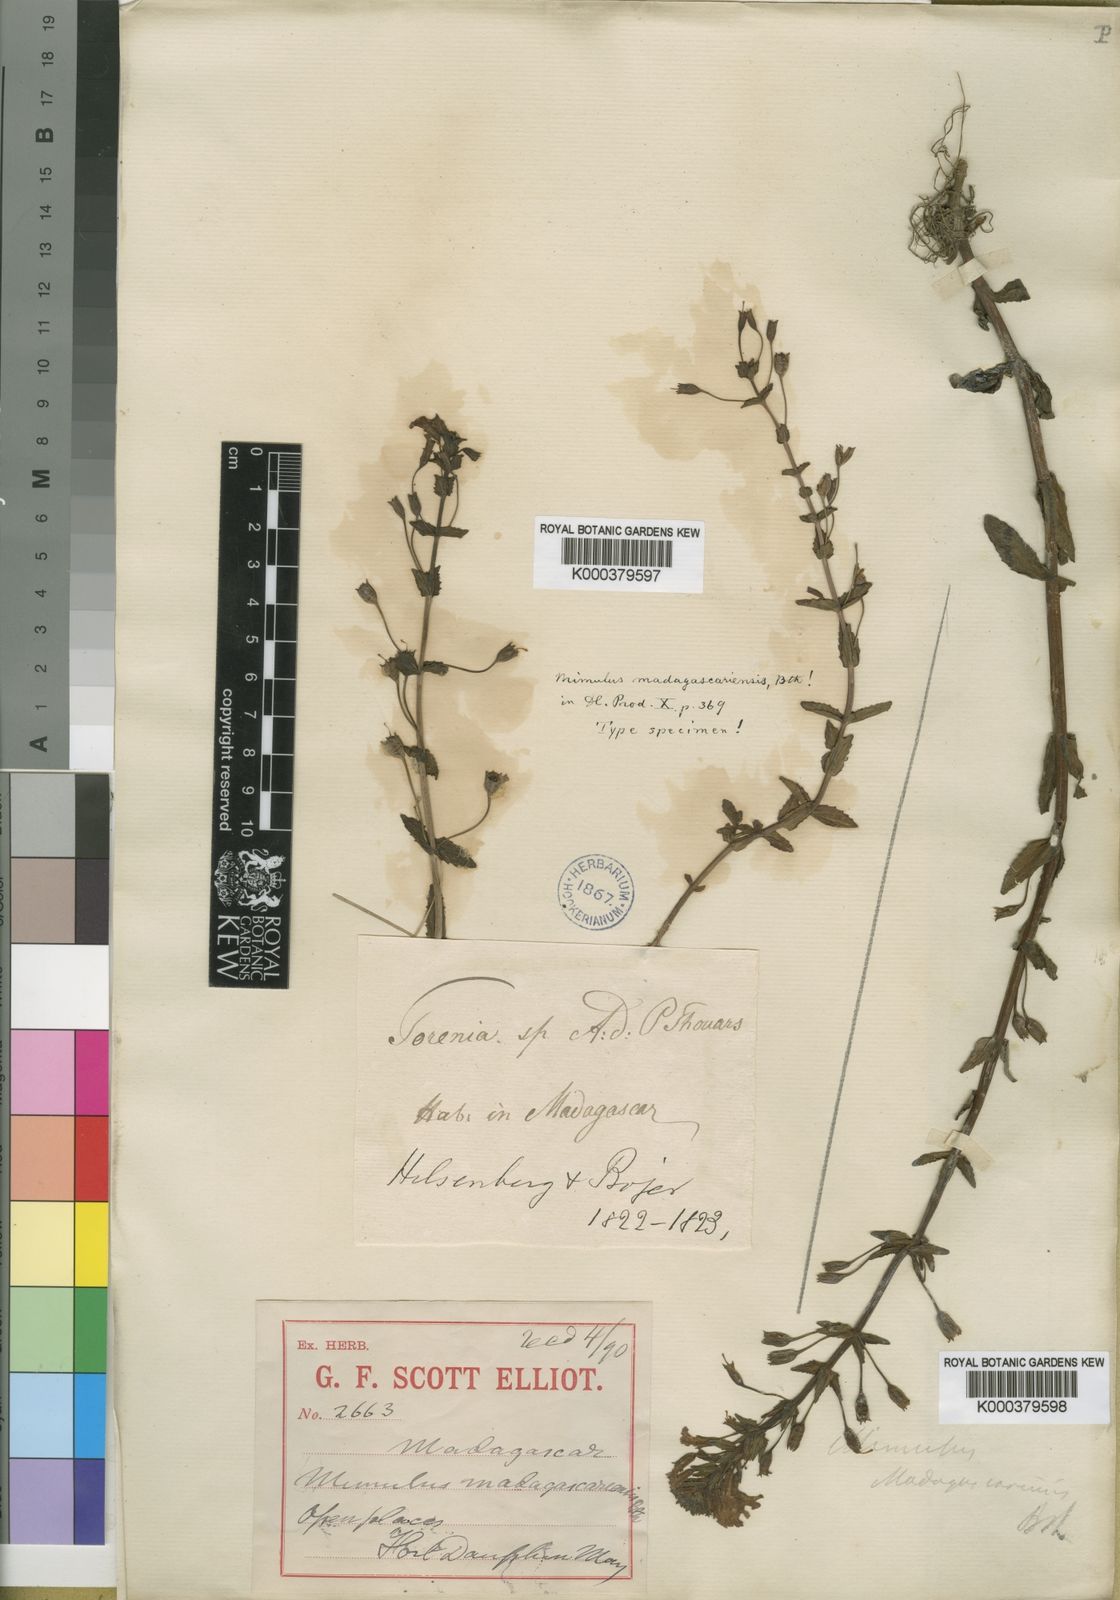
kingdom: Plantae
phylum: Tracheophyta
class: Magnoliopsida
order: Lamiales
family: Phrymaceae
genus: Mimulus
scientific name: Mimulus madagascariensis
